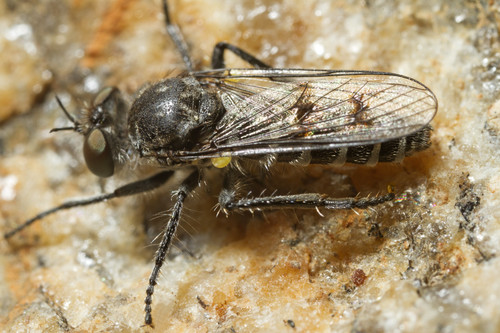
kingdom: Animalia
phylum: Arthropoda
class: Insecta
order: Diptera
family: Asilidae
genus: Paraphamartania
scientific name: Paraphamartania marvaoensis
